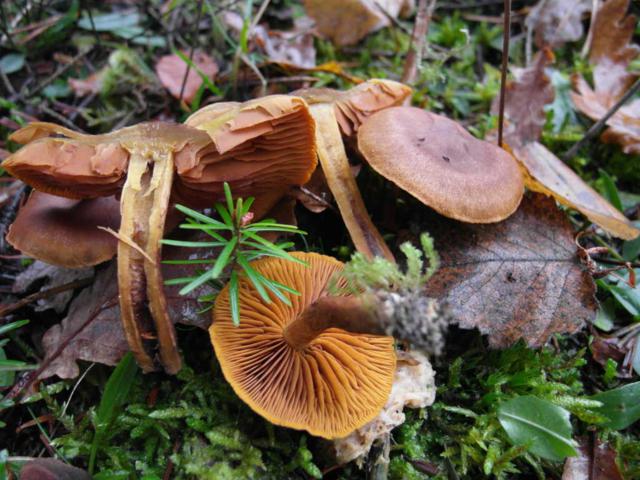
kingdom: Fungi
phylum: Basidiomycota
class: Agaricomycetes
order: Agaricales
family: Cortinariaceae
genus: Cortinarius
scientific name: Cortinarius malicorius
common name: grønkødet slørhat
